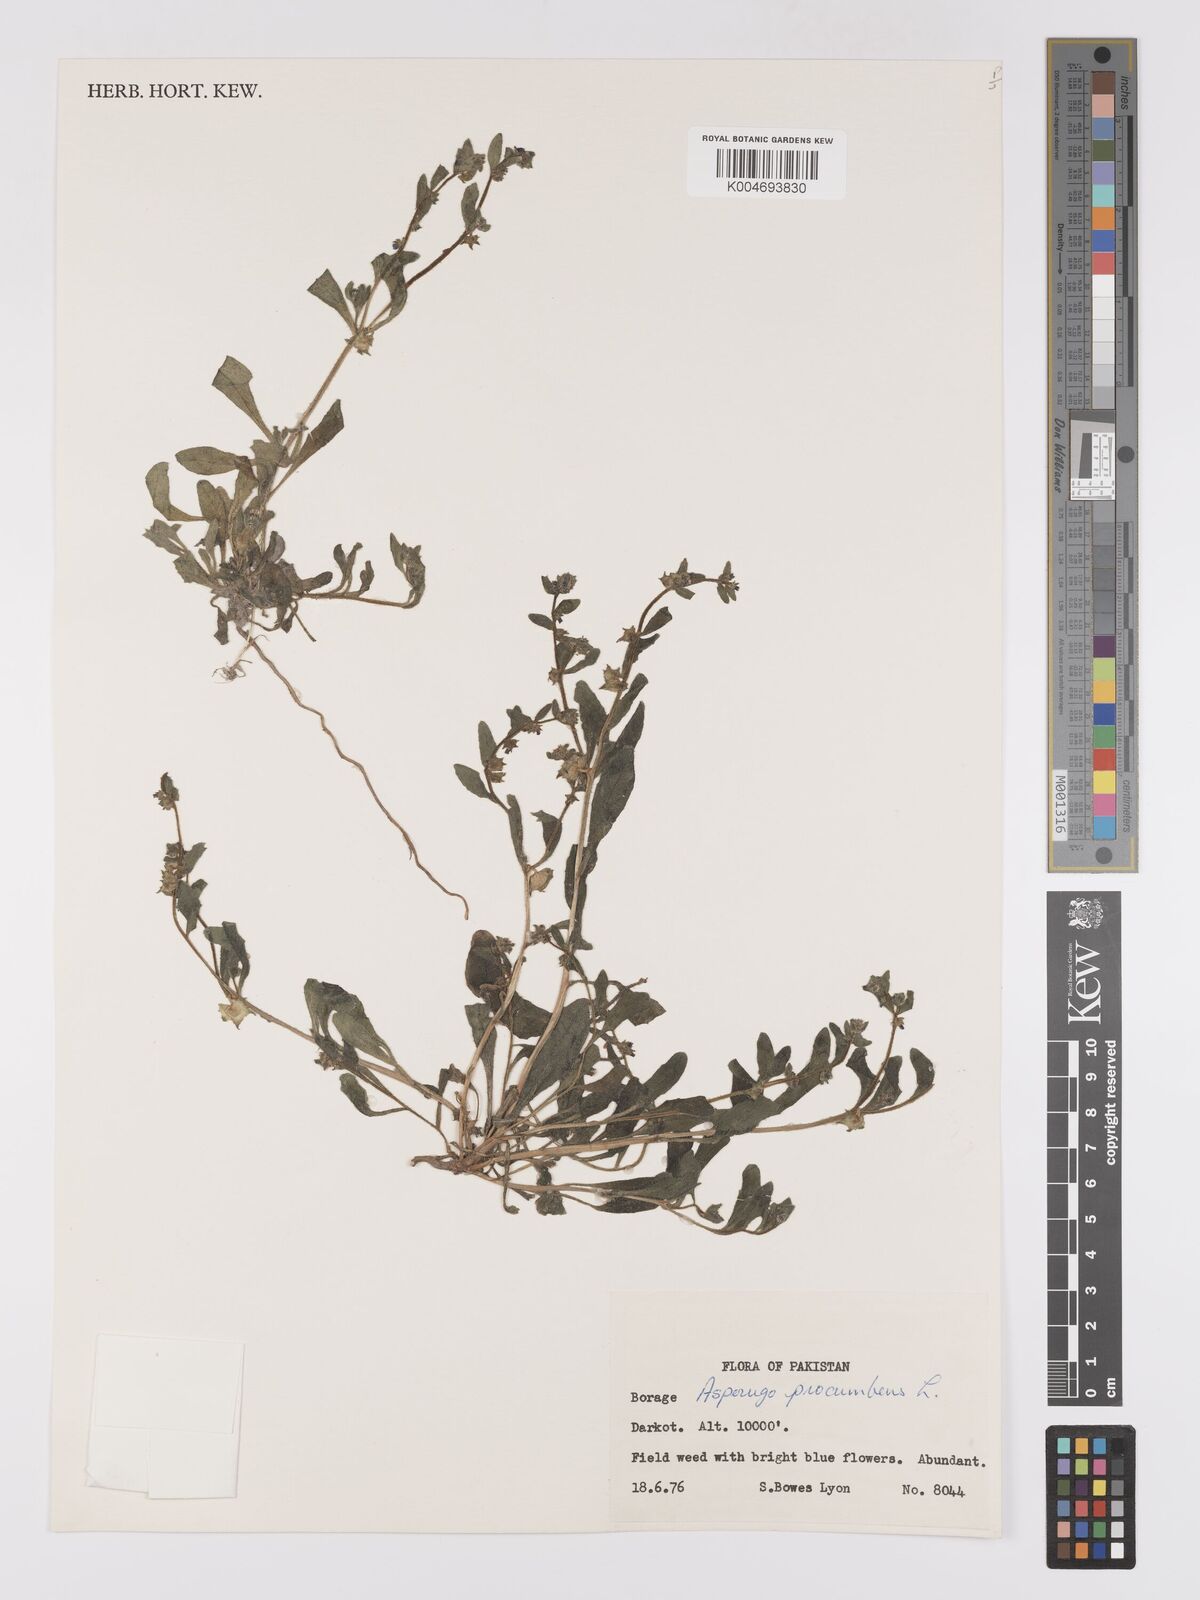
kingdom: Plantae
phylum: Tracheophyta
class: Magnoliopsida
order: Boraginales
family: Boraginaceae
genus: Asperugo
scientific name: Asperugo procumbens
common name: Madwort
